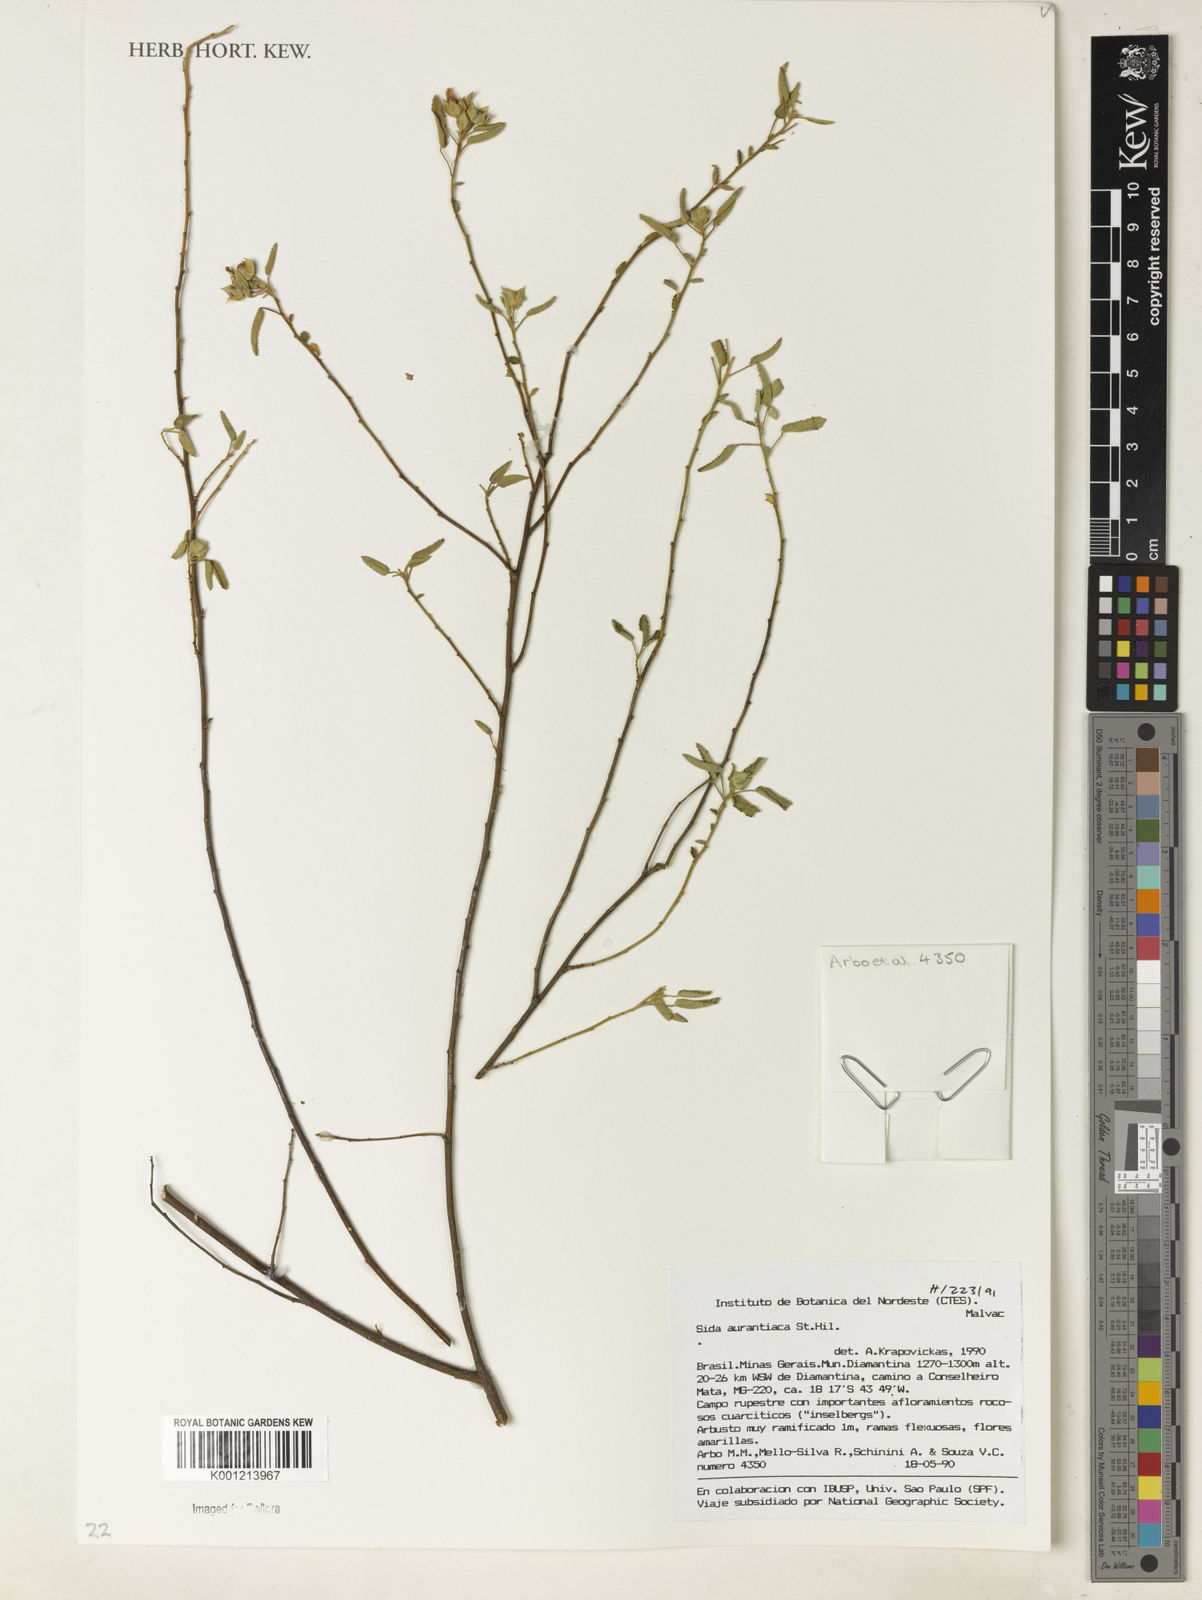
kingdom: Plantae
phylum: Tracheophyta
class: Magnoliopsida
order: Malvales
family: Malvaceae
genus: Sida
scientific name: Sida aurantiaca
